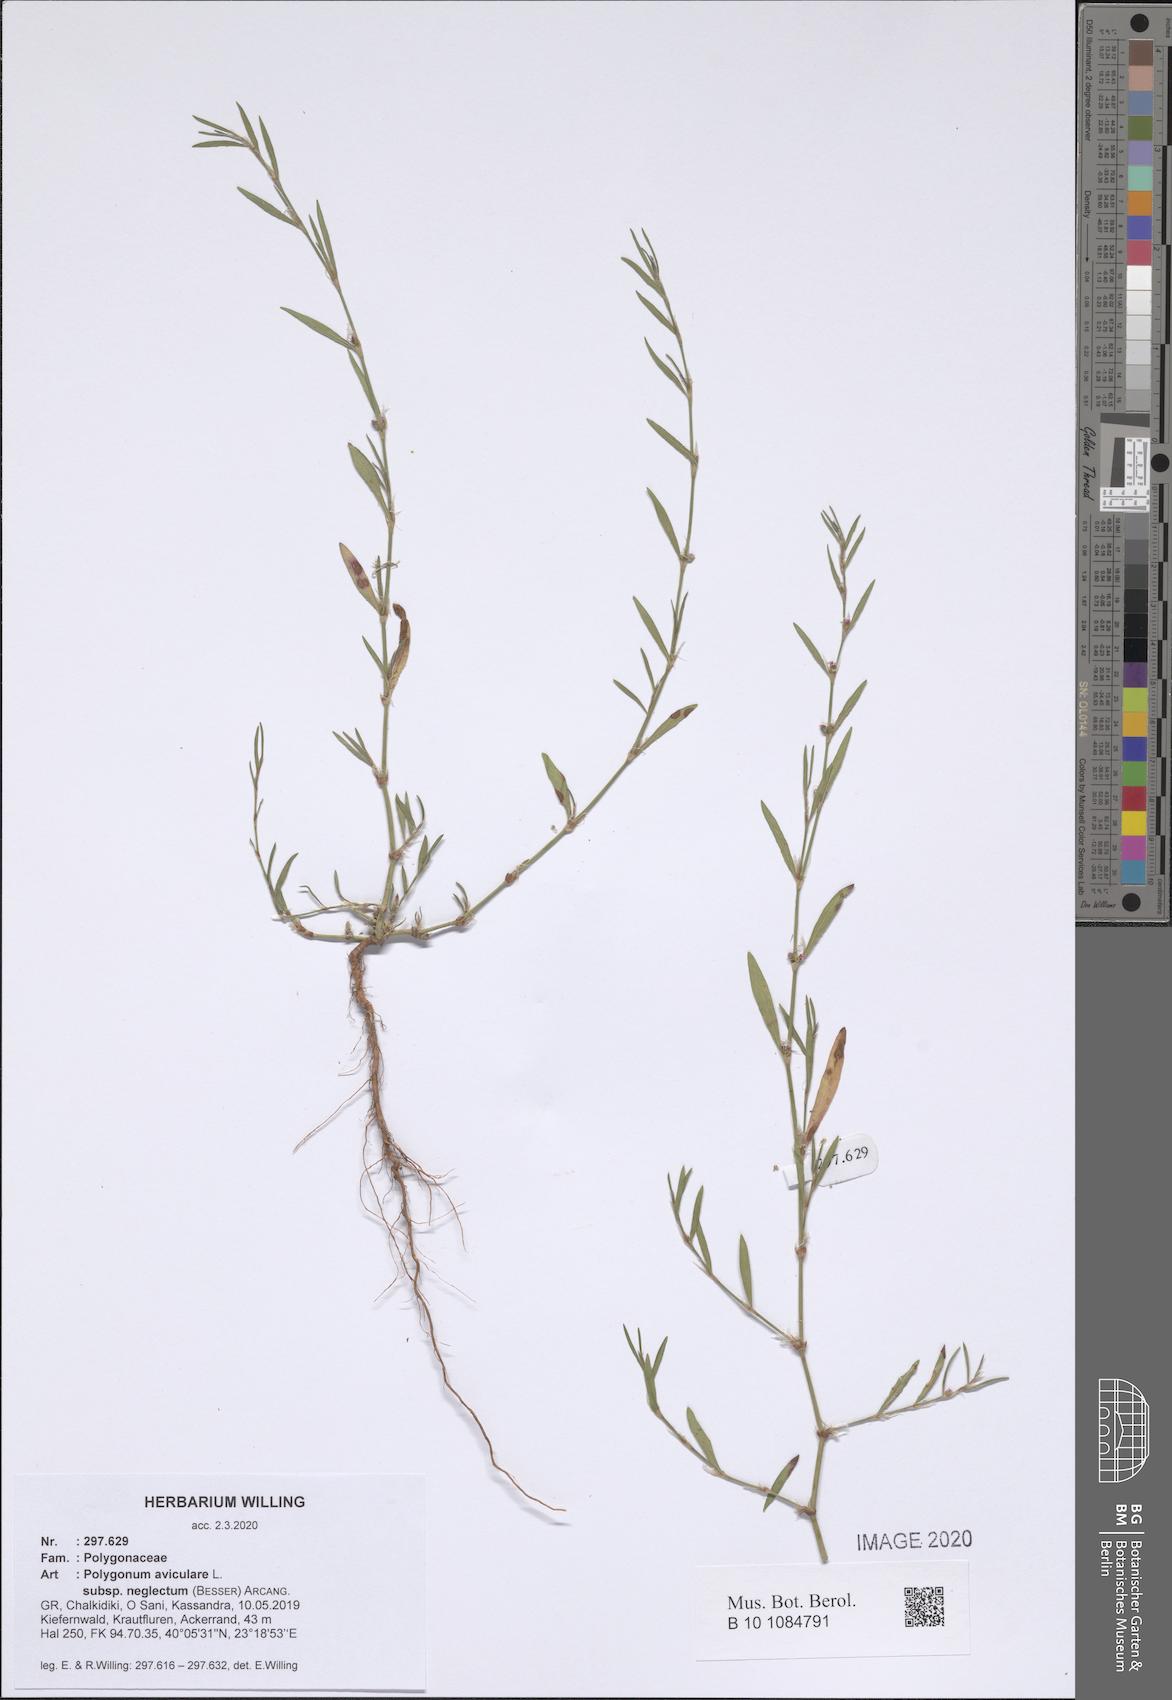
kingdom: Plantae
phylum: Tracheophyta
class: Magnoliopsida
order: Caryophyllales
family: Polygonaceae
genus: Polygonum
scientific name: Polygonum aviculare
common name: Prostrate knotweed
